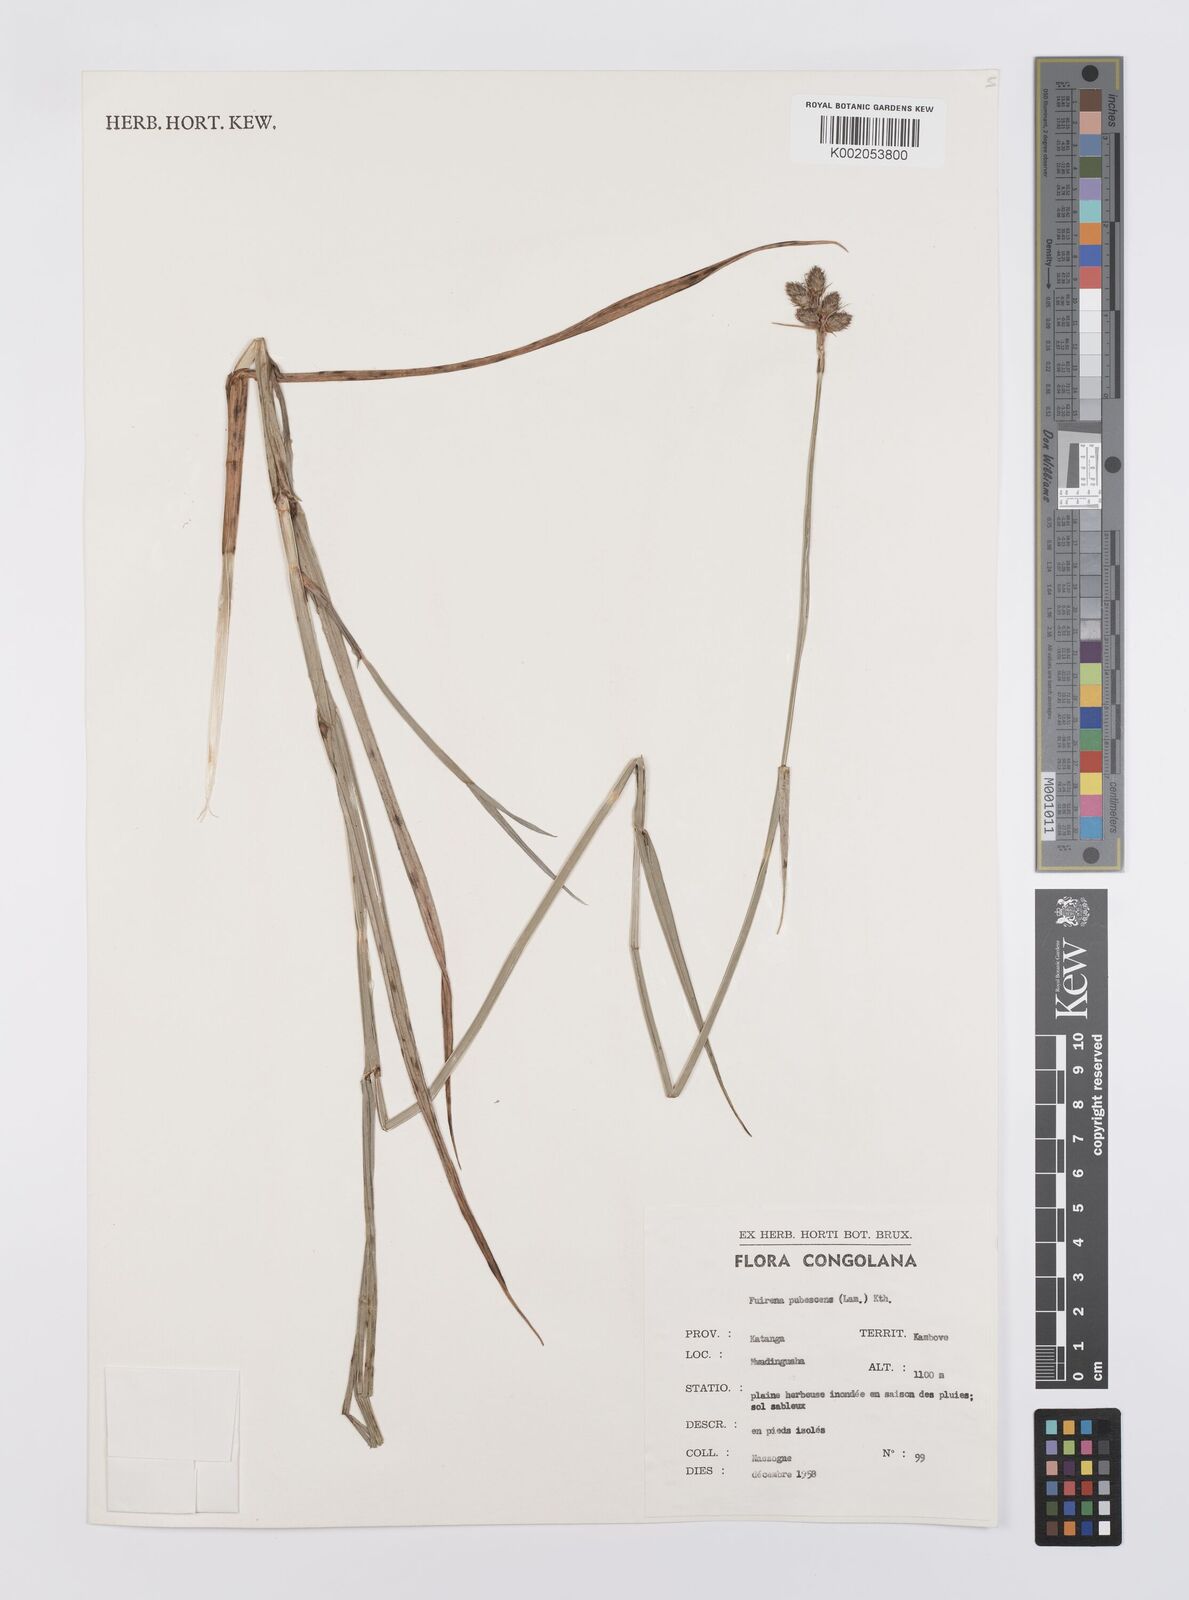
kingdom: Plantae
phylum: Tracheophyta
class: Liliopsida
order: Poales
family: Cyperaceae
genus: Fuirena
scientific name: Fuirena pubescens
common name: Hairy sedge
